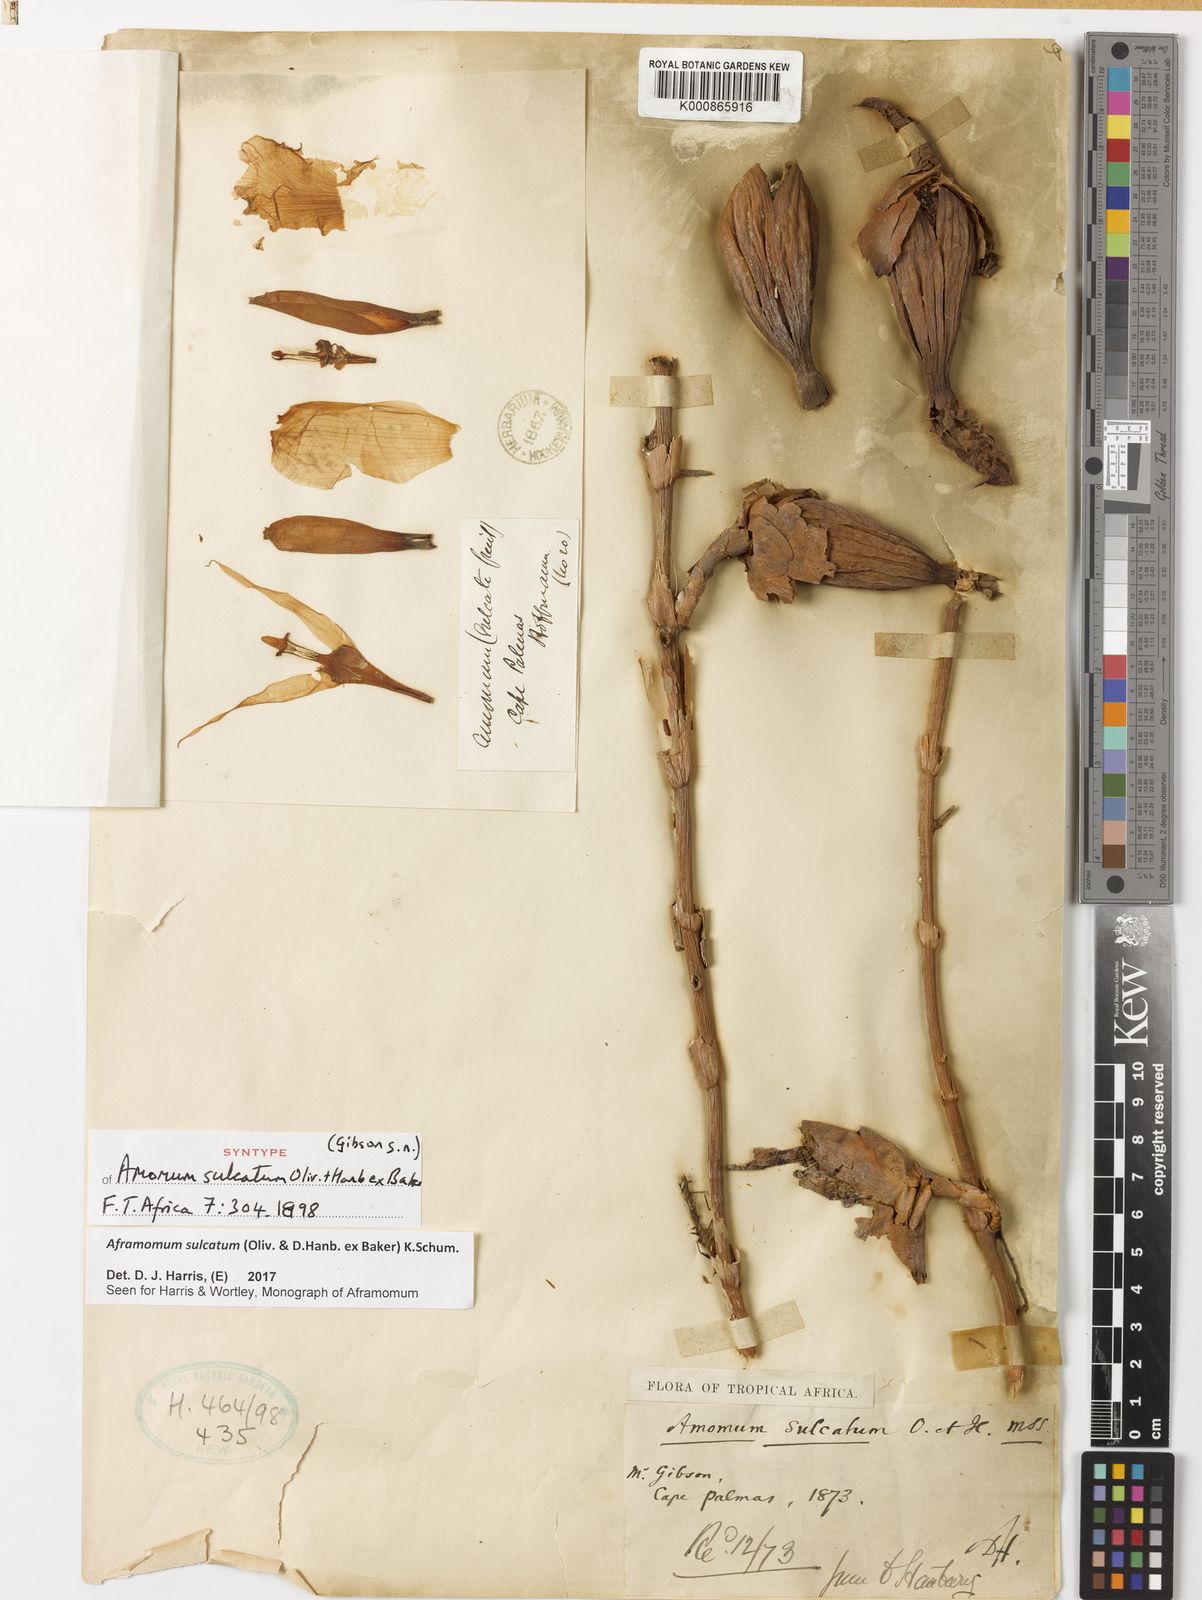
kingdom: Plantae
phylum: Tracheophyta
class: Liliopsida
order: Zingiberales
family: Zingiberaceae
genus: Aframomum
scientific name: Aframomum sulcatum
